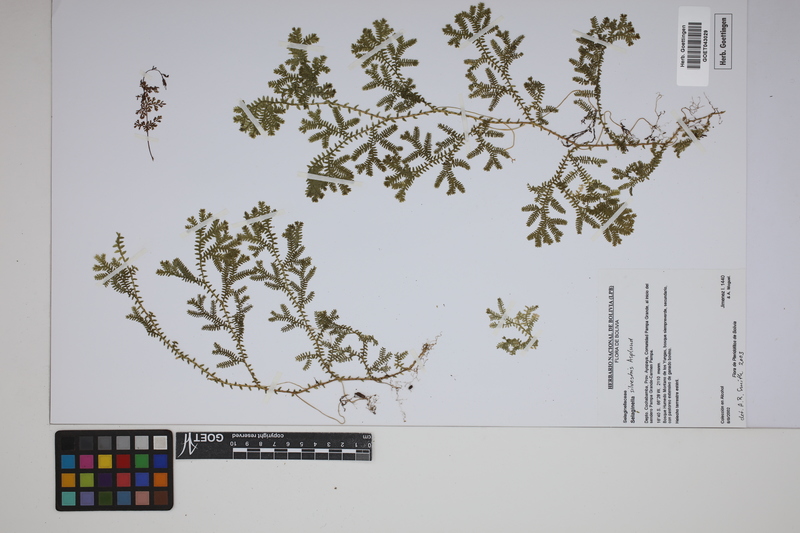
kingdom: Plantae
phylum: Tracheophyta
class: Lycopodiopsida
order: Selaginellales
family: Selaginellaceae
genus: Selaginella
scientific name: Selaginella silvestris
